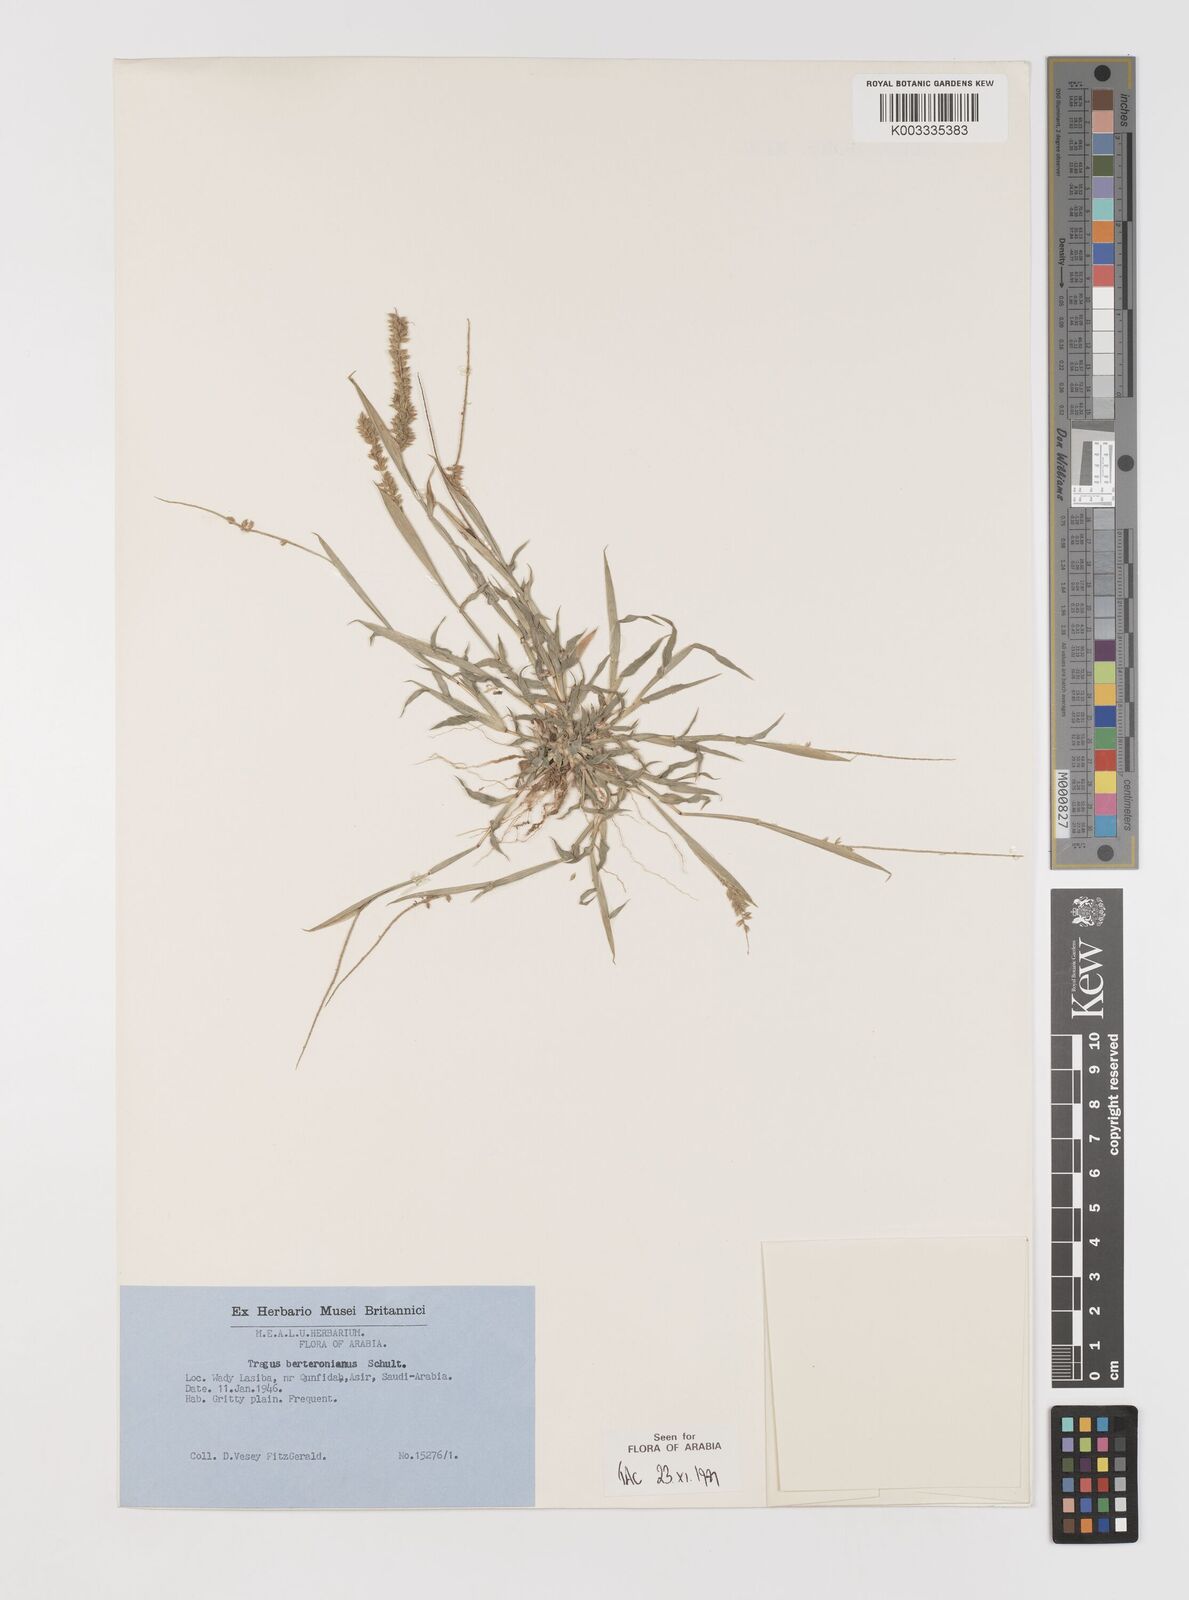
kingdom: Plantae
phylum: Tracheophyta
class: Liliopsida
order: Poales
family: Poaceae
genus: Tragus
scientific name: Tragus berteronianus
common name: African bur-grass
